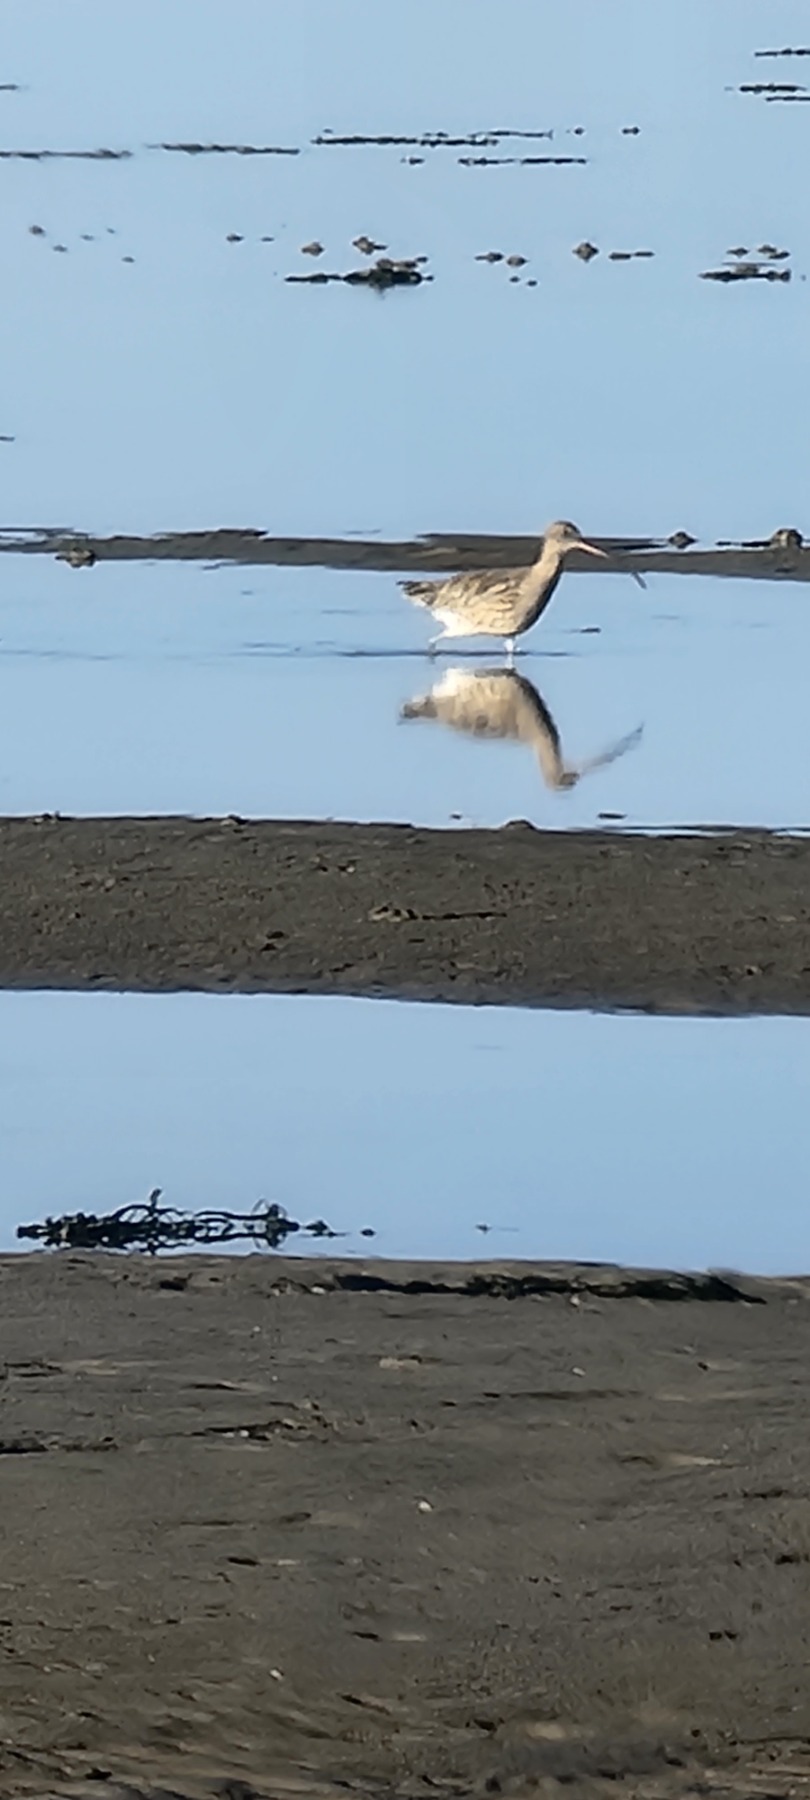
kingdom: Animalia
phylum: Chordata
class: Aves
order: Charadriiformes
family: Scolopacidae
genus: Numenius
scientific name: Numenius arquata
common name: Storspove
